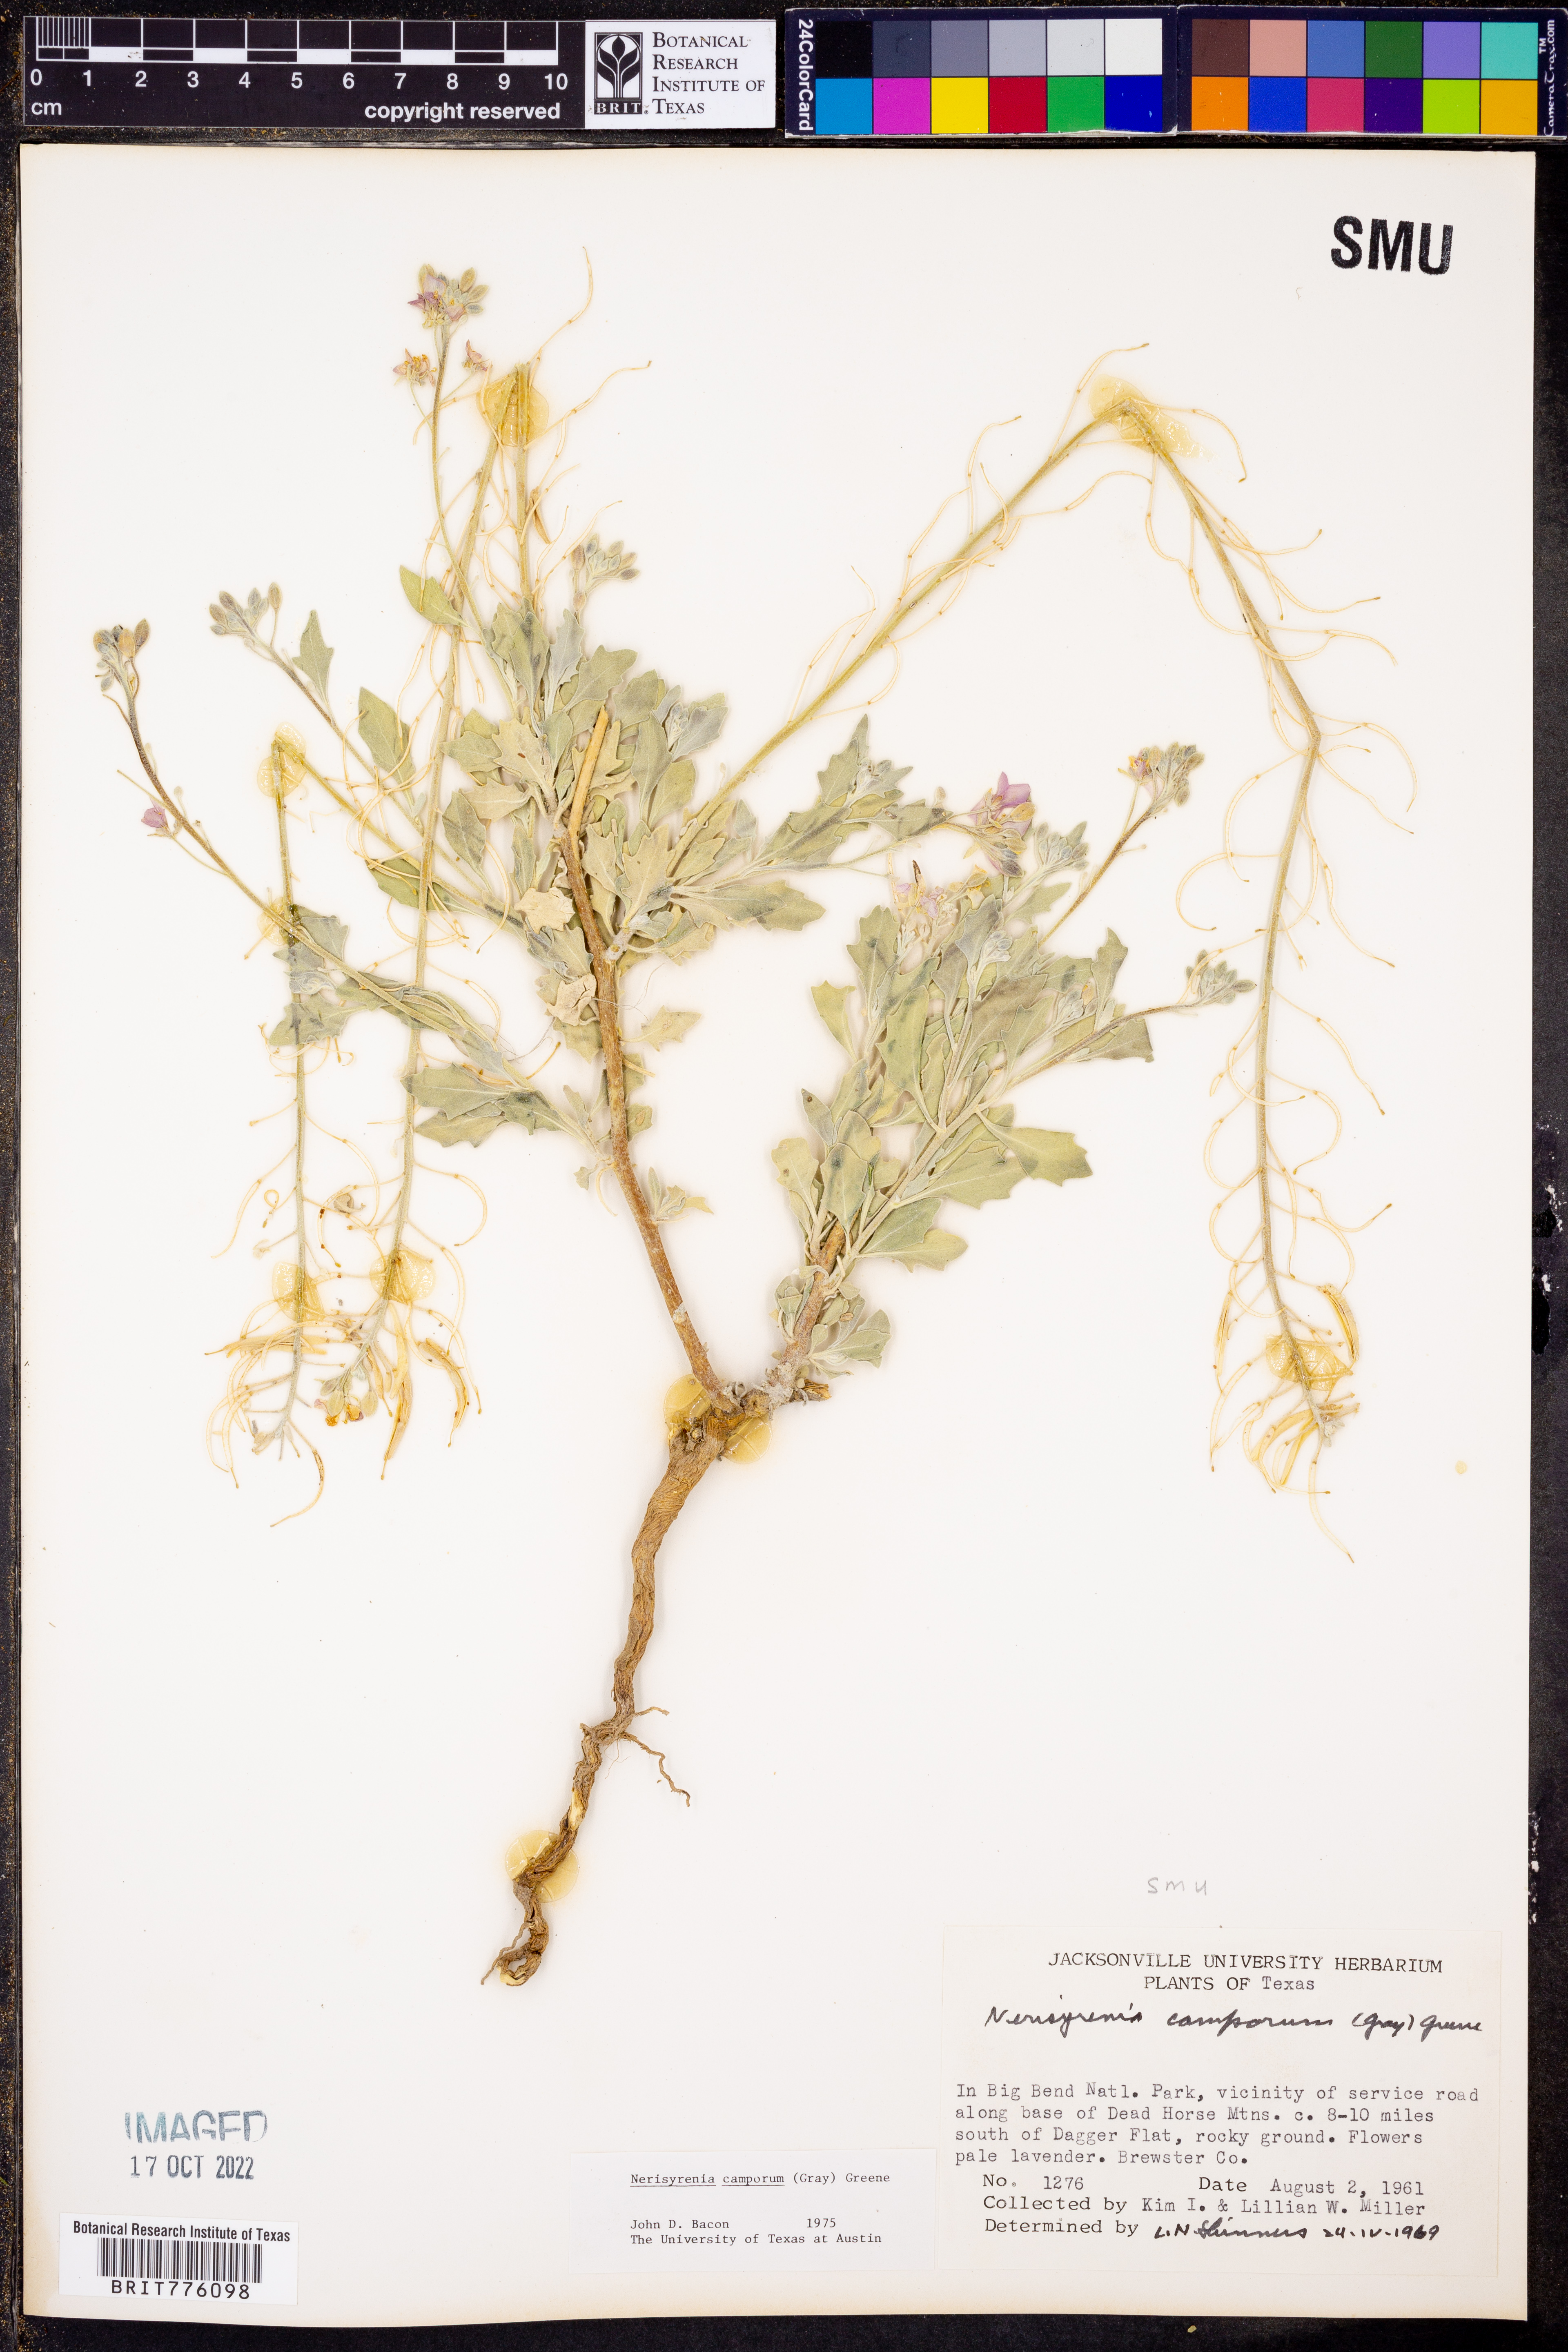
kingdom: Plantae
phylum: Tracheophyta
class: Magnoliopsida
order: Brassicales
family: Brassicaceae
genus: Nerisyrenia
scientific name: Nerisyrenia camporum
